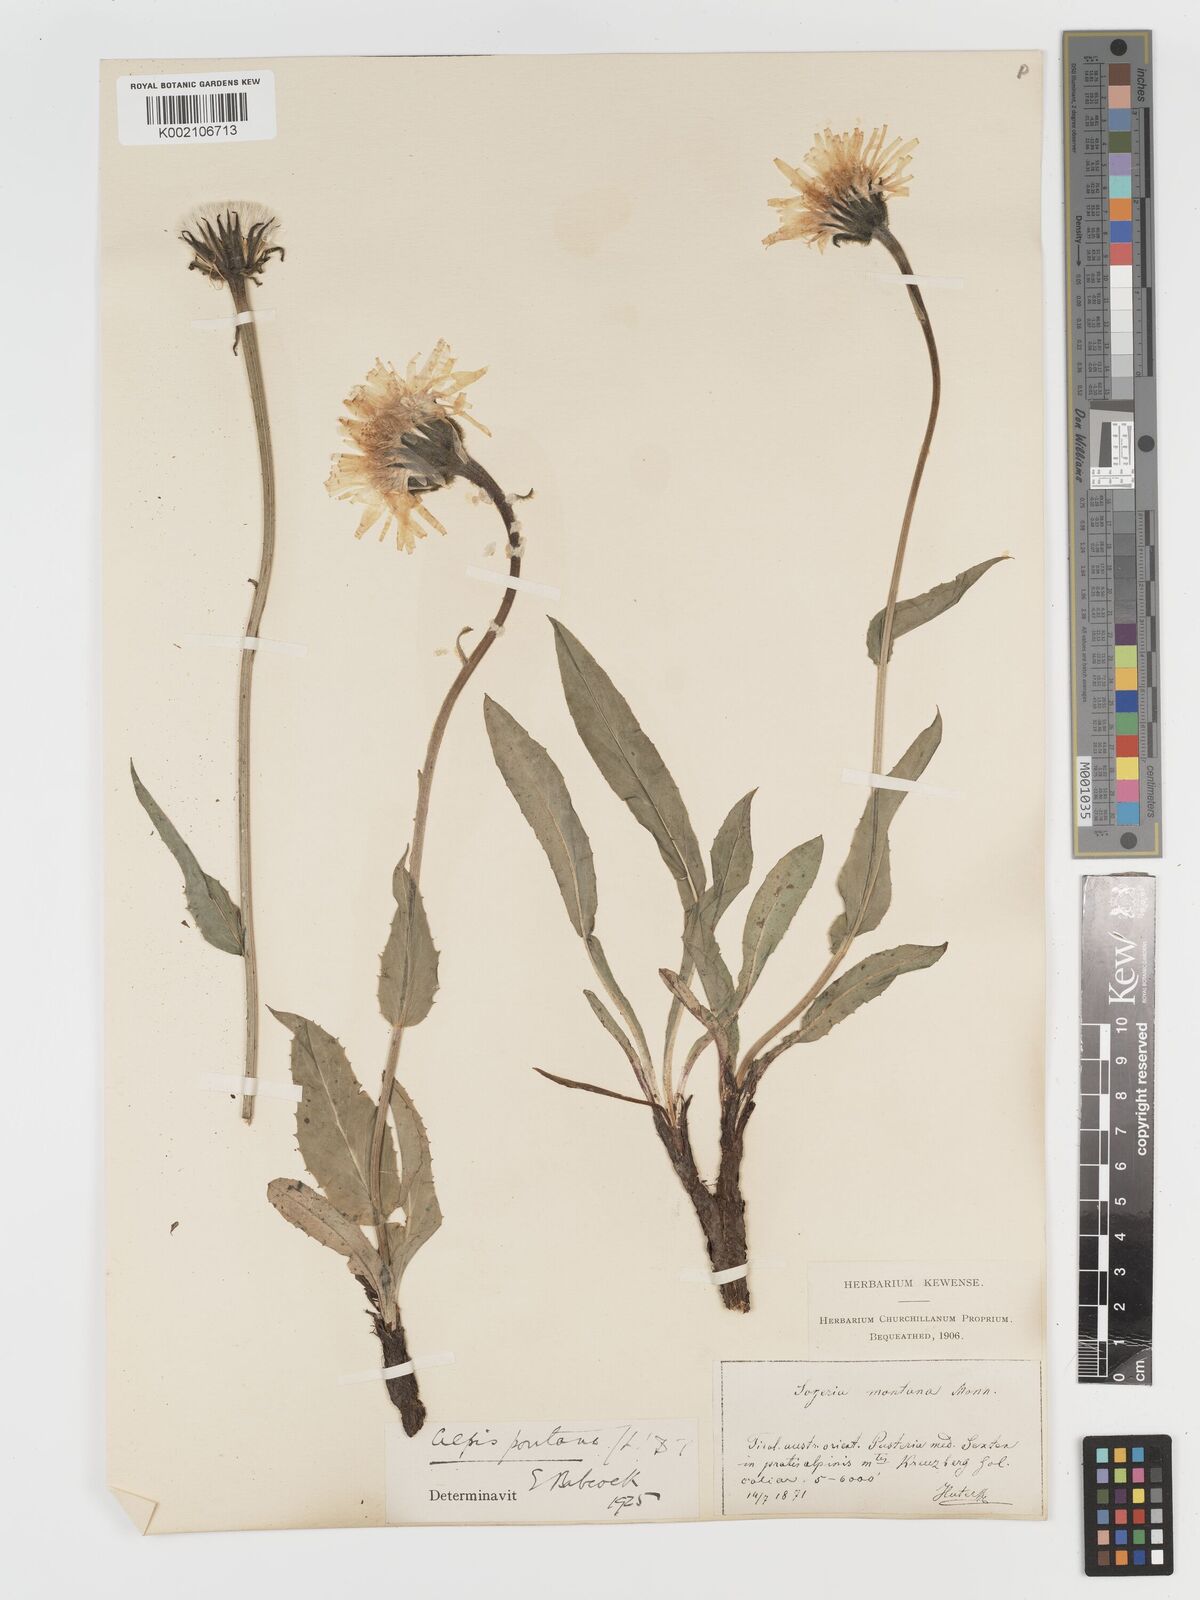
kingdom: Plantae
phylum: Tracheophyta
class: Magnoliopsida
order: Asterales
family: Asteraceae
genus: Crepis
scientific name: Crepis pontana
